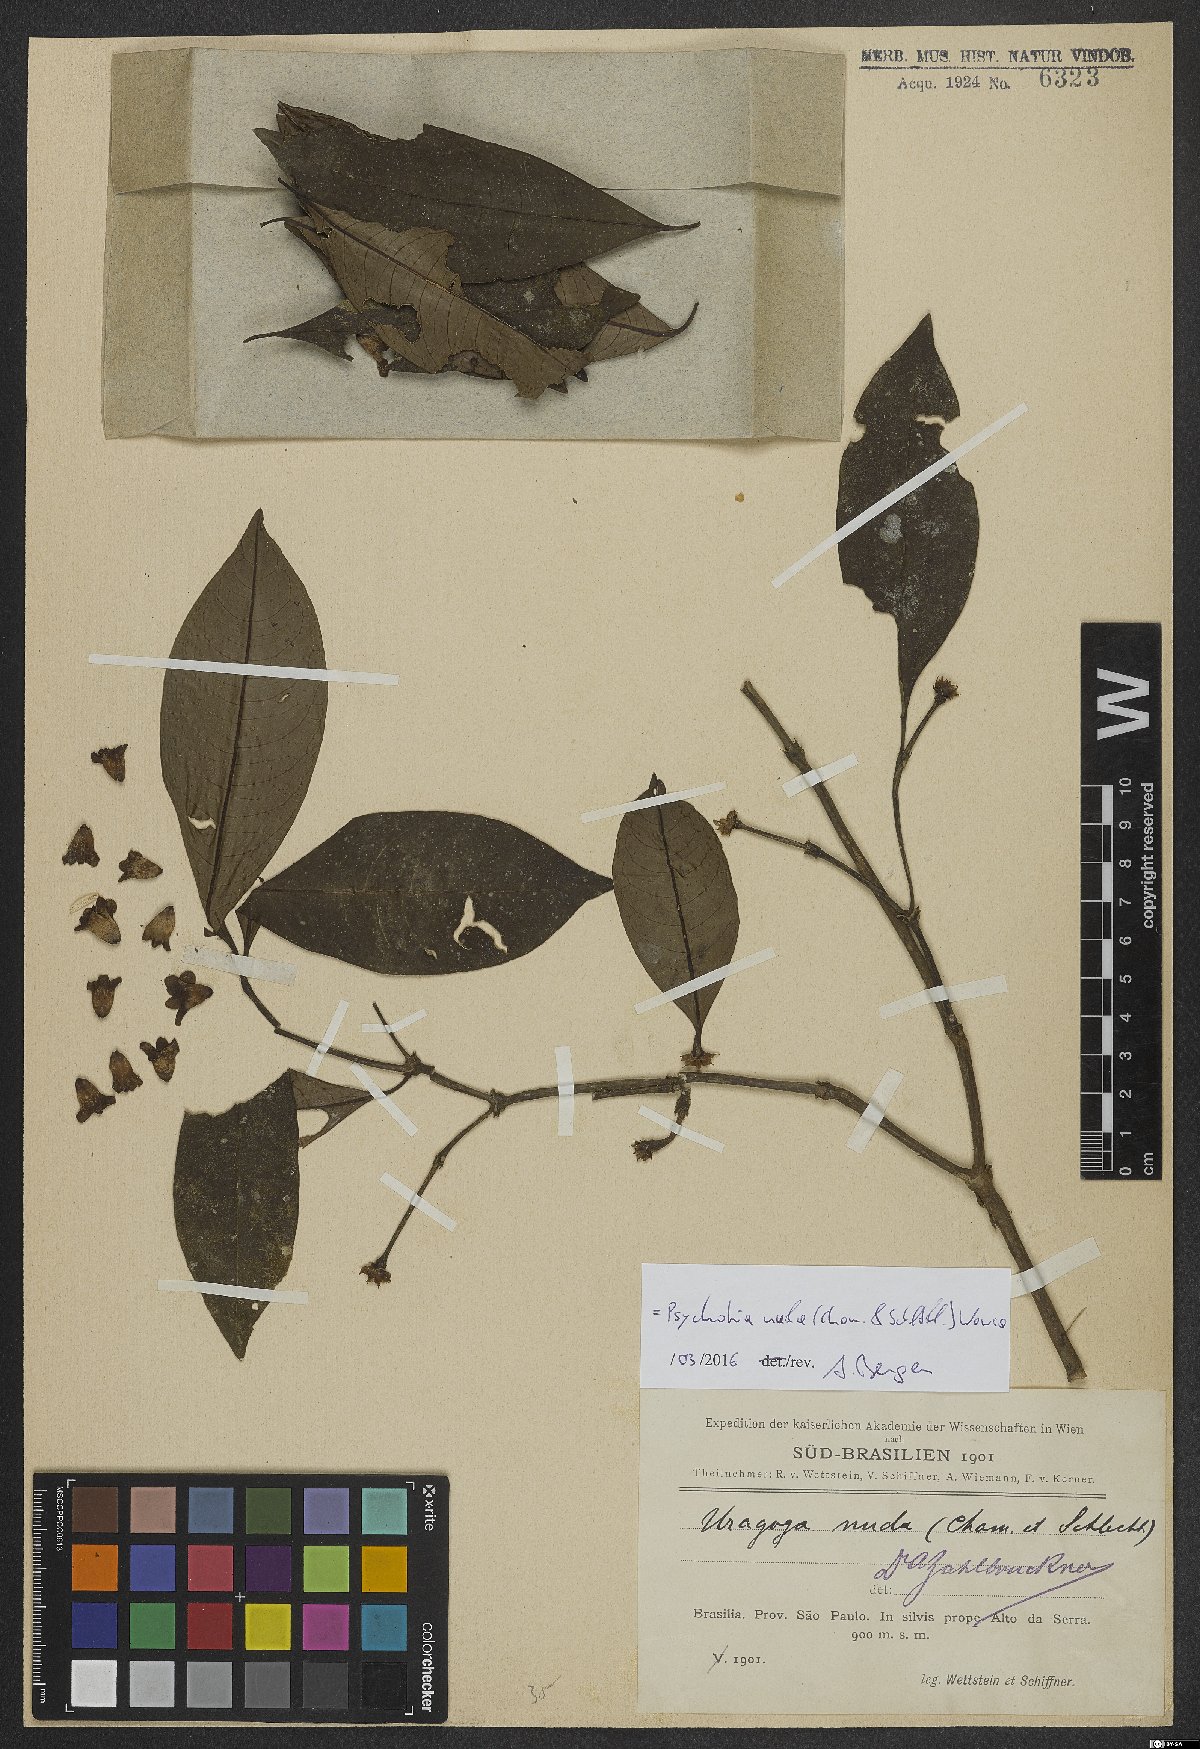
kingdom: Plantae
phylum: Tracheophyta
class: Magnoliopsida
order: Gentianales
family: Rubiaceae
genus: Psychotria
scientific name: Psychotria nuda
